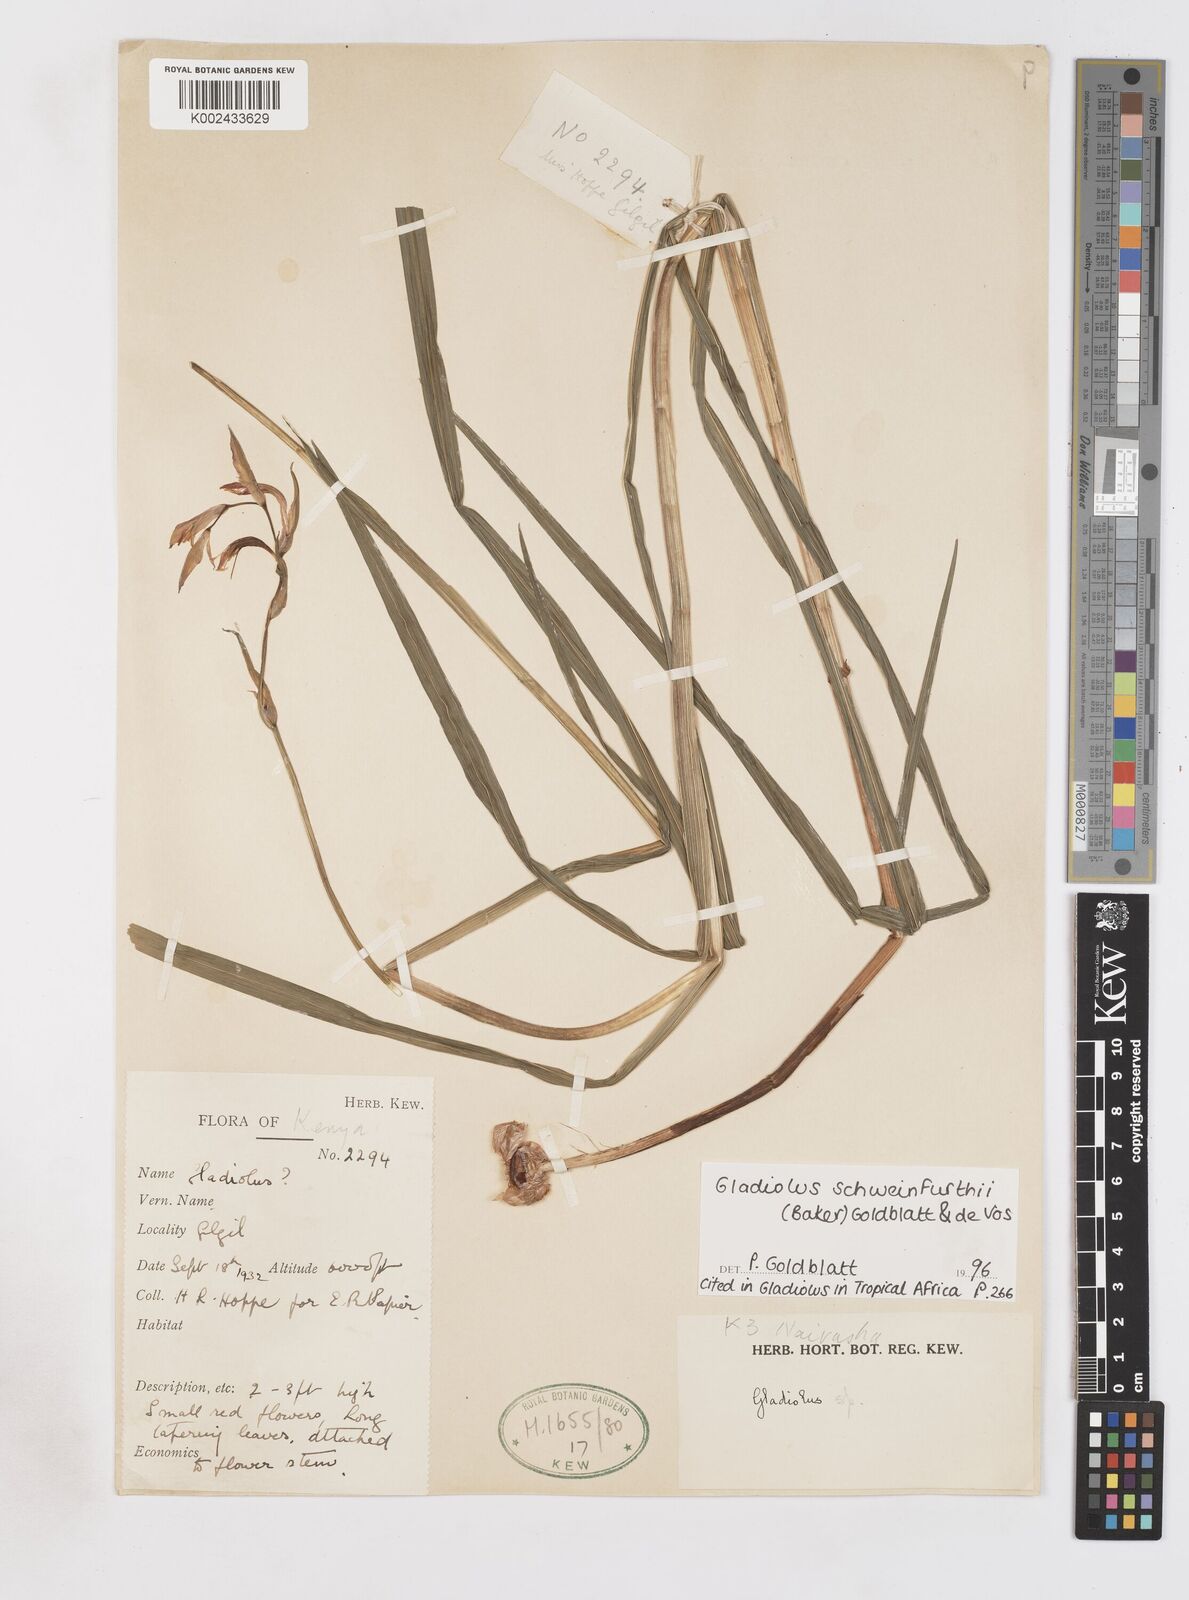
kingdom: Plantae
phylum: Tracheophyta
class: Liliopsida
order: Asparagales
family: Iridaceae
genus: Gladiolus
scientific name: Gladiolus schweinfurthii
